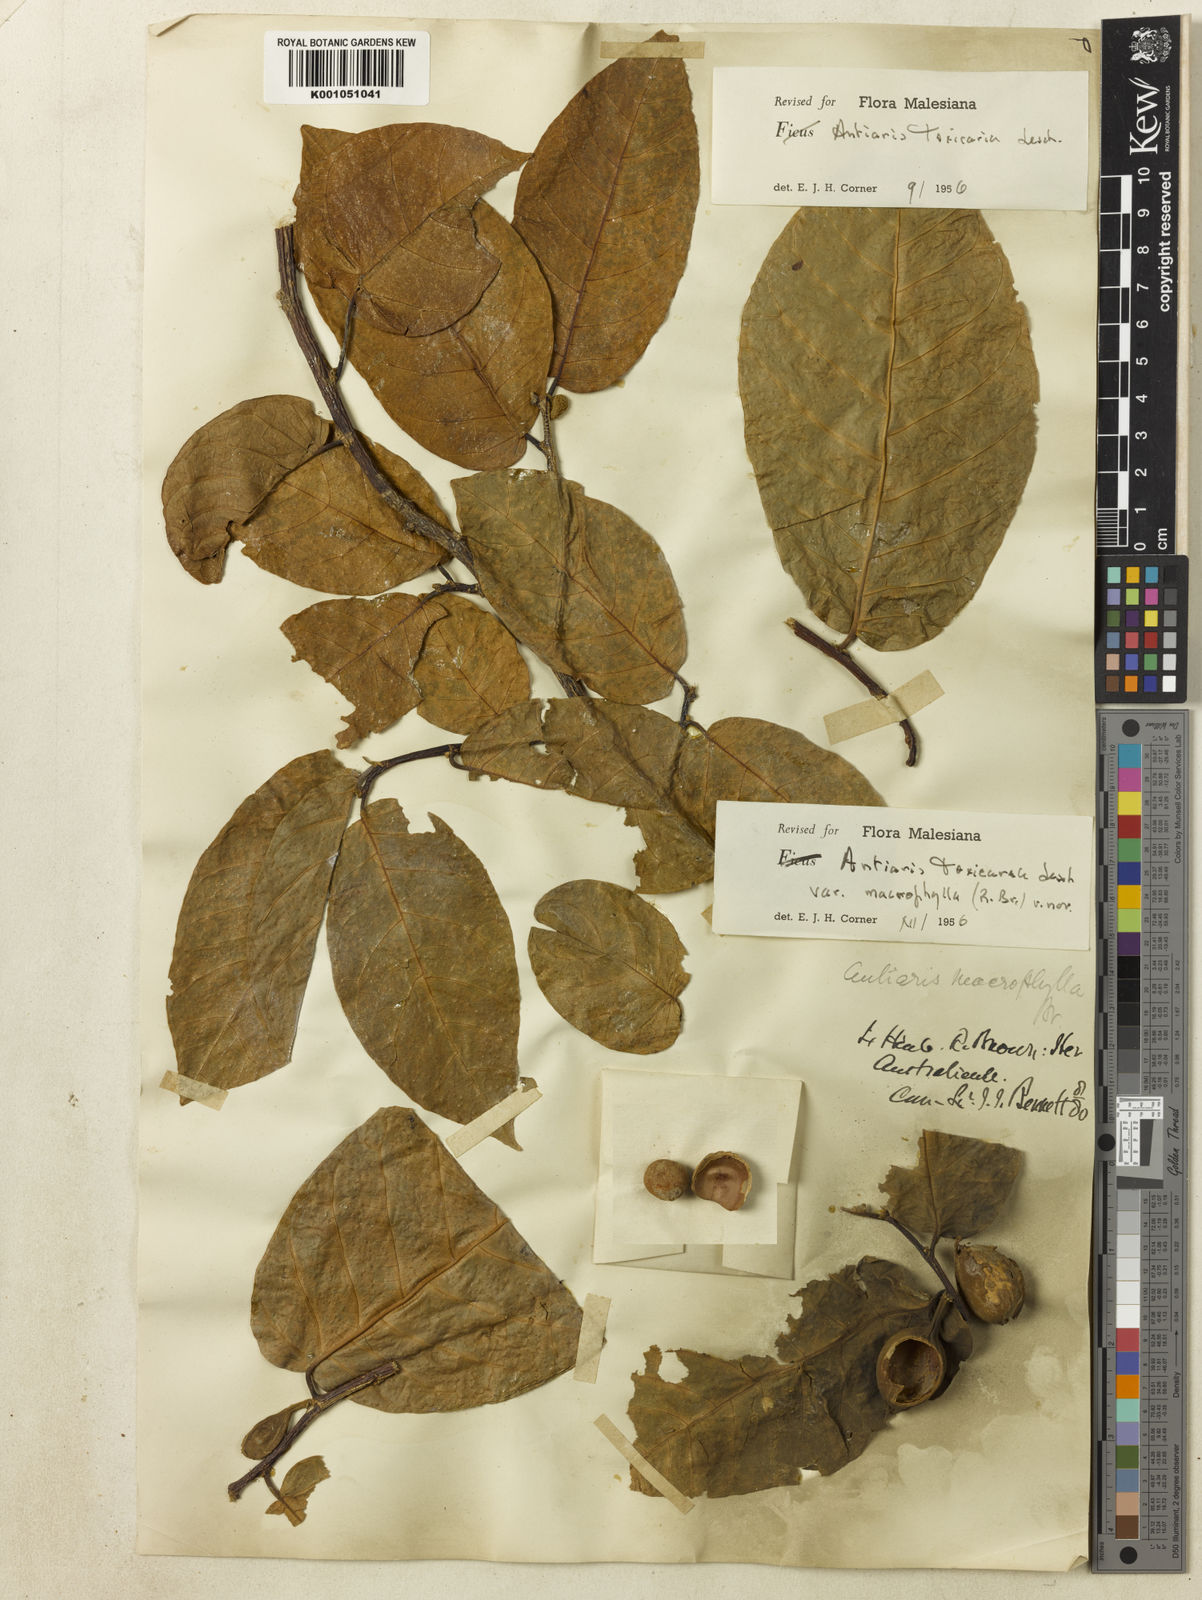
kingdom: Plantae
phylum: Tracheophyta
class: Magnoliopsida
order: Rosales
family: Moraceae
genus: Antiaris
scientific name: Antiaris toxicaria
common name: Sackingtree
